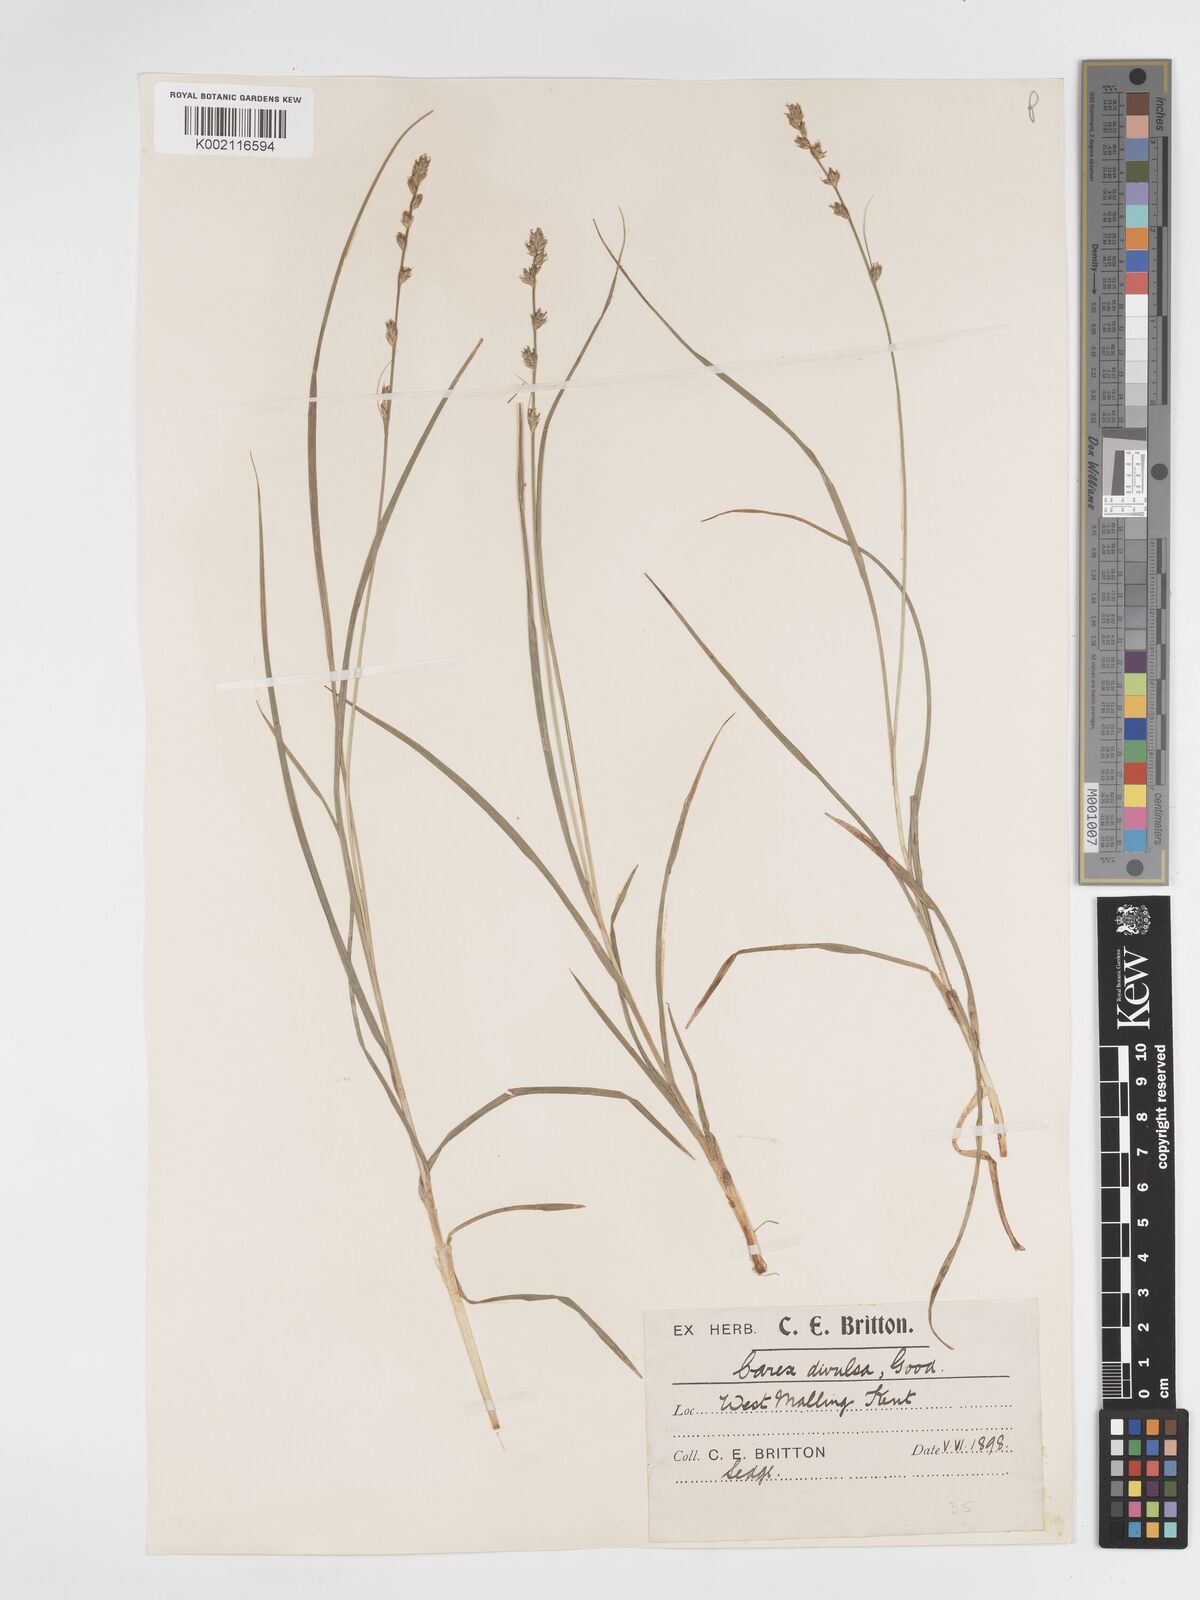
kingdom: Plantae
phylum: Tracheophyta
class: Liliopsida
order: Poales
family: Cyperaceae
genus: Carex
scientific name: Carex divulsa
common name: Grassland sedge
